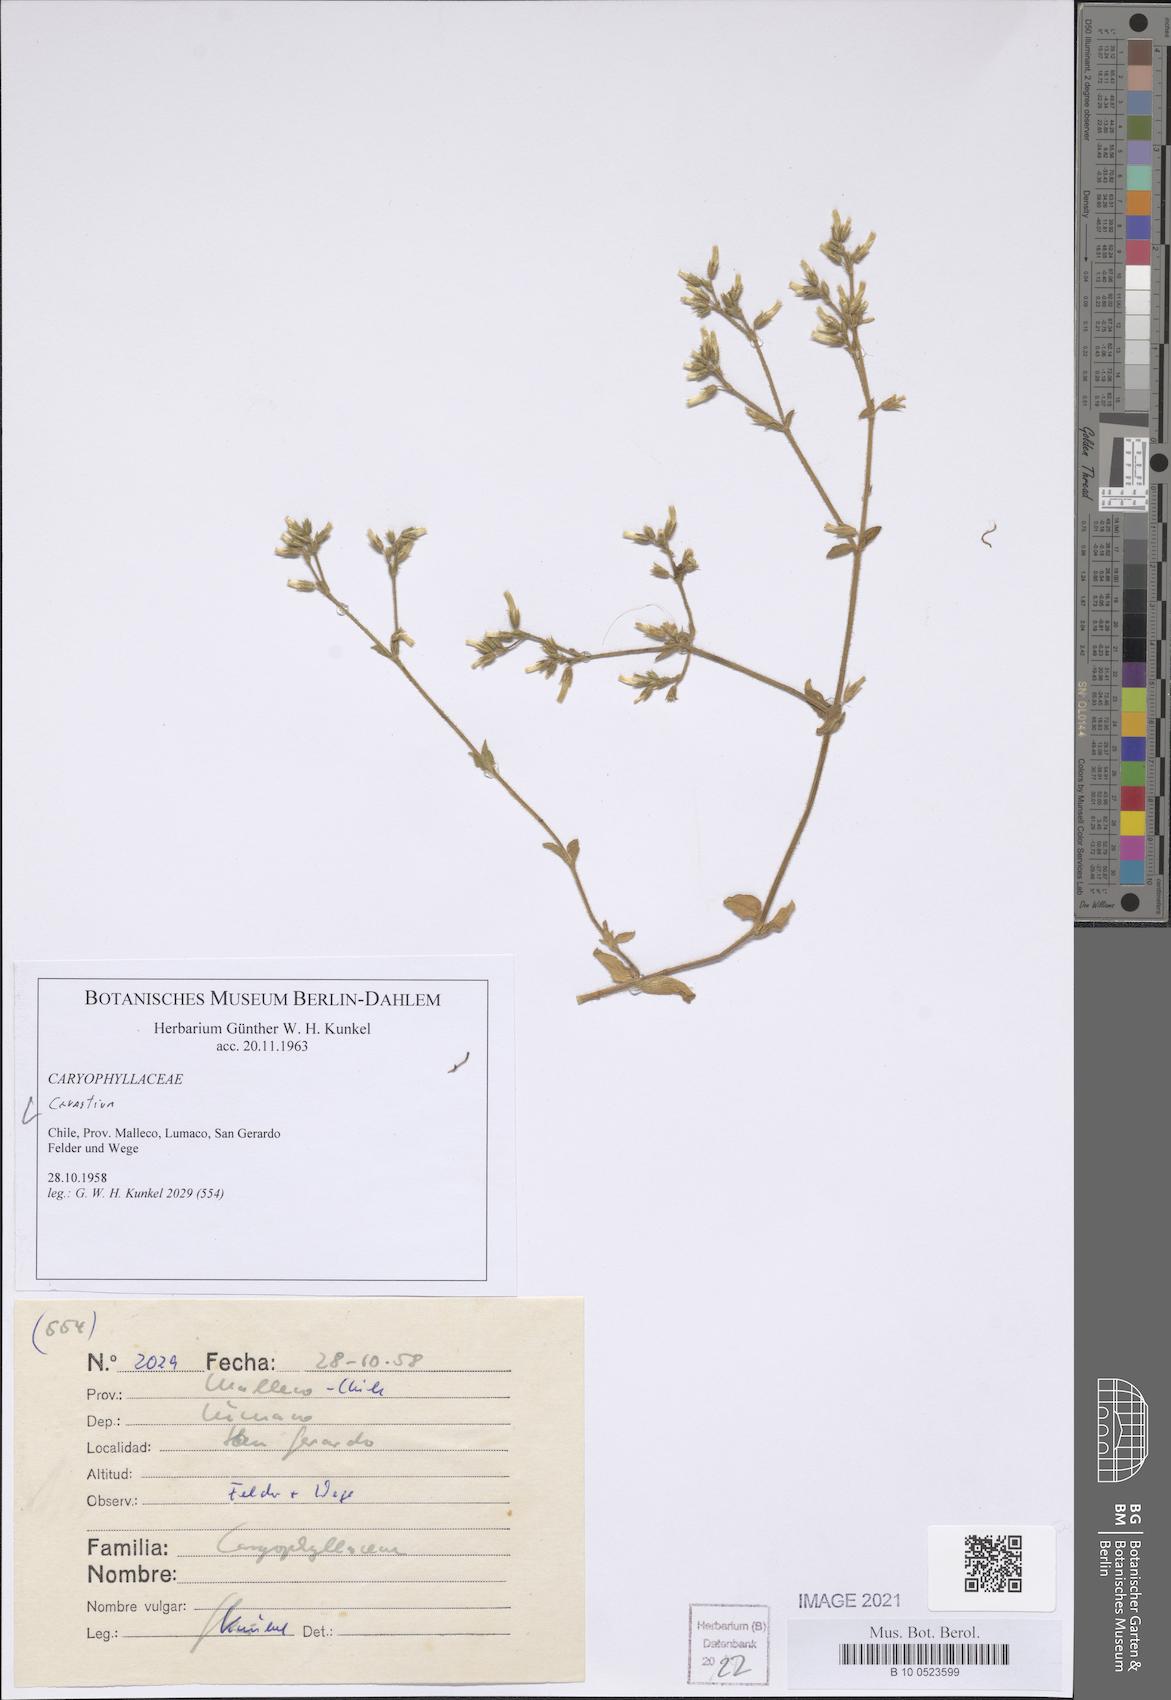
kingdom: Plantae
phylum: Tracheophyta
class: Magnoliopsida
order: Caryophyllales
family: Caryophyllaceae
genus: Cerastium
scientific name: Cerastium
